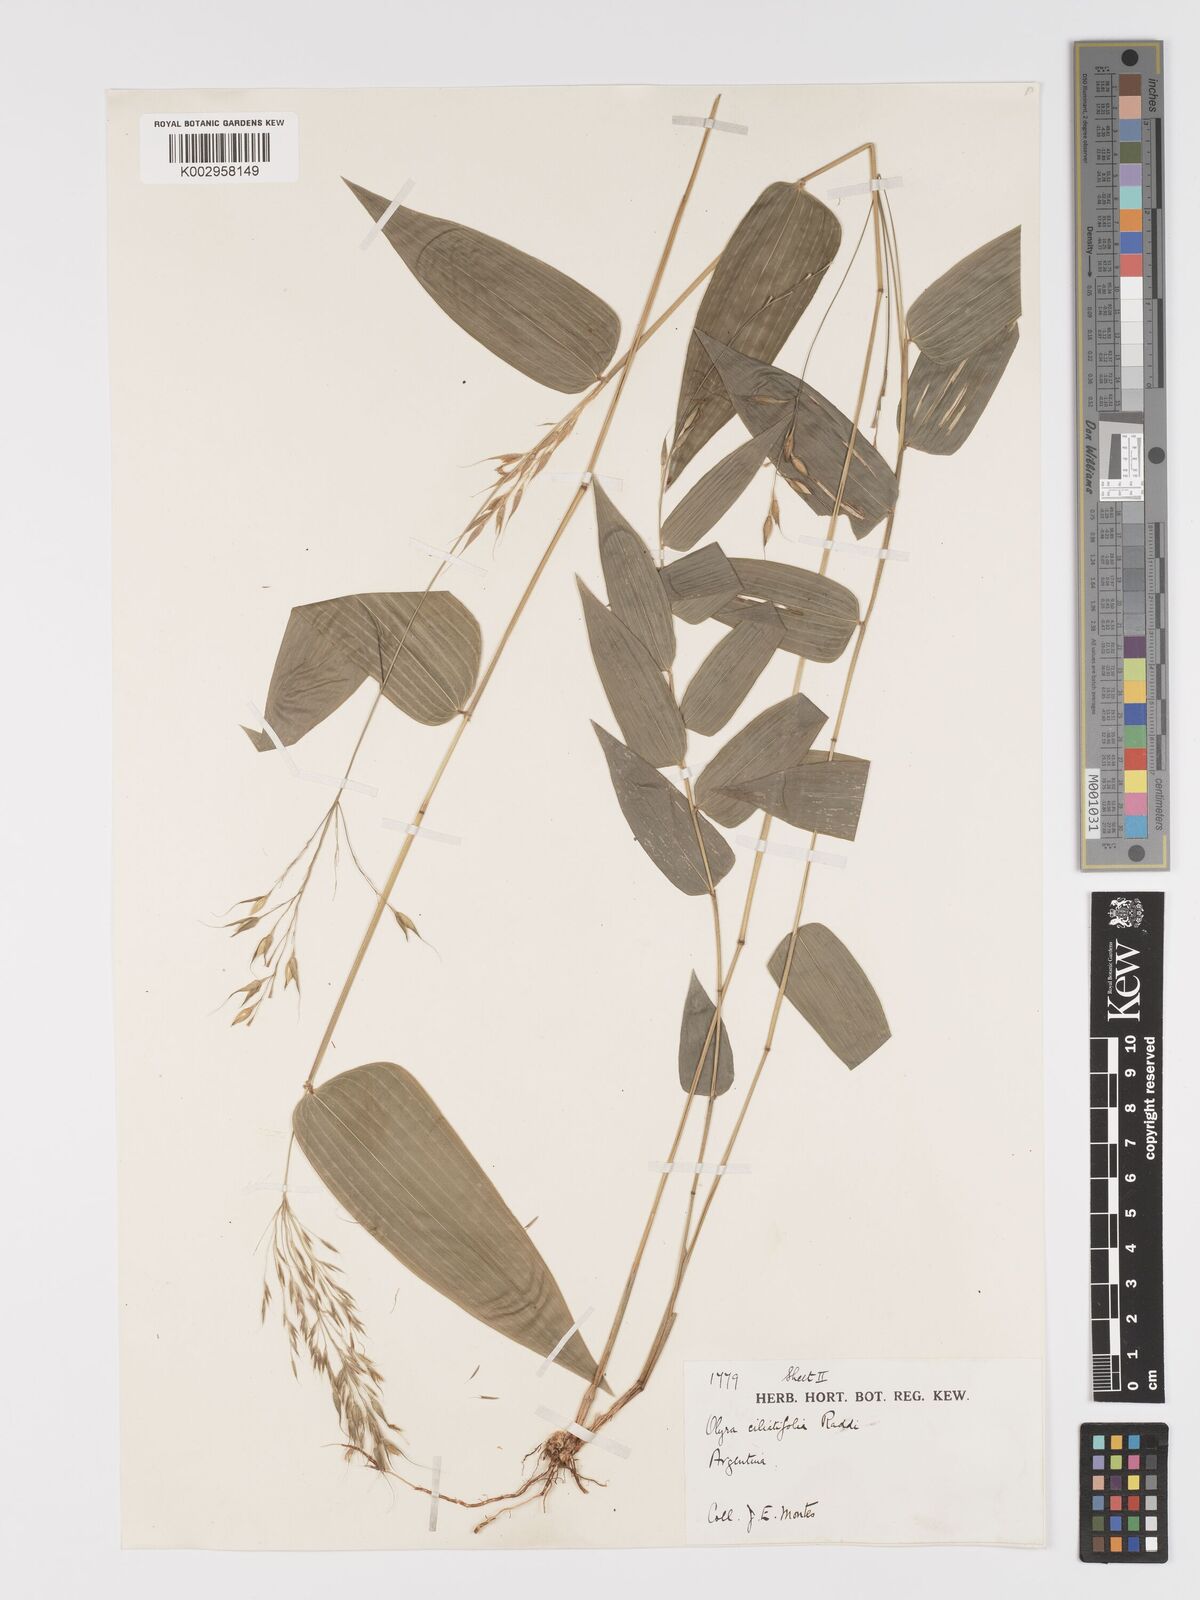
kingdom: Plantae
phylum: Tracheophyta
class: Liliopsida
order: Poales
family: Poaceae
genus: Olyra
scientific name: Olyra ciliatifolia
